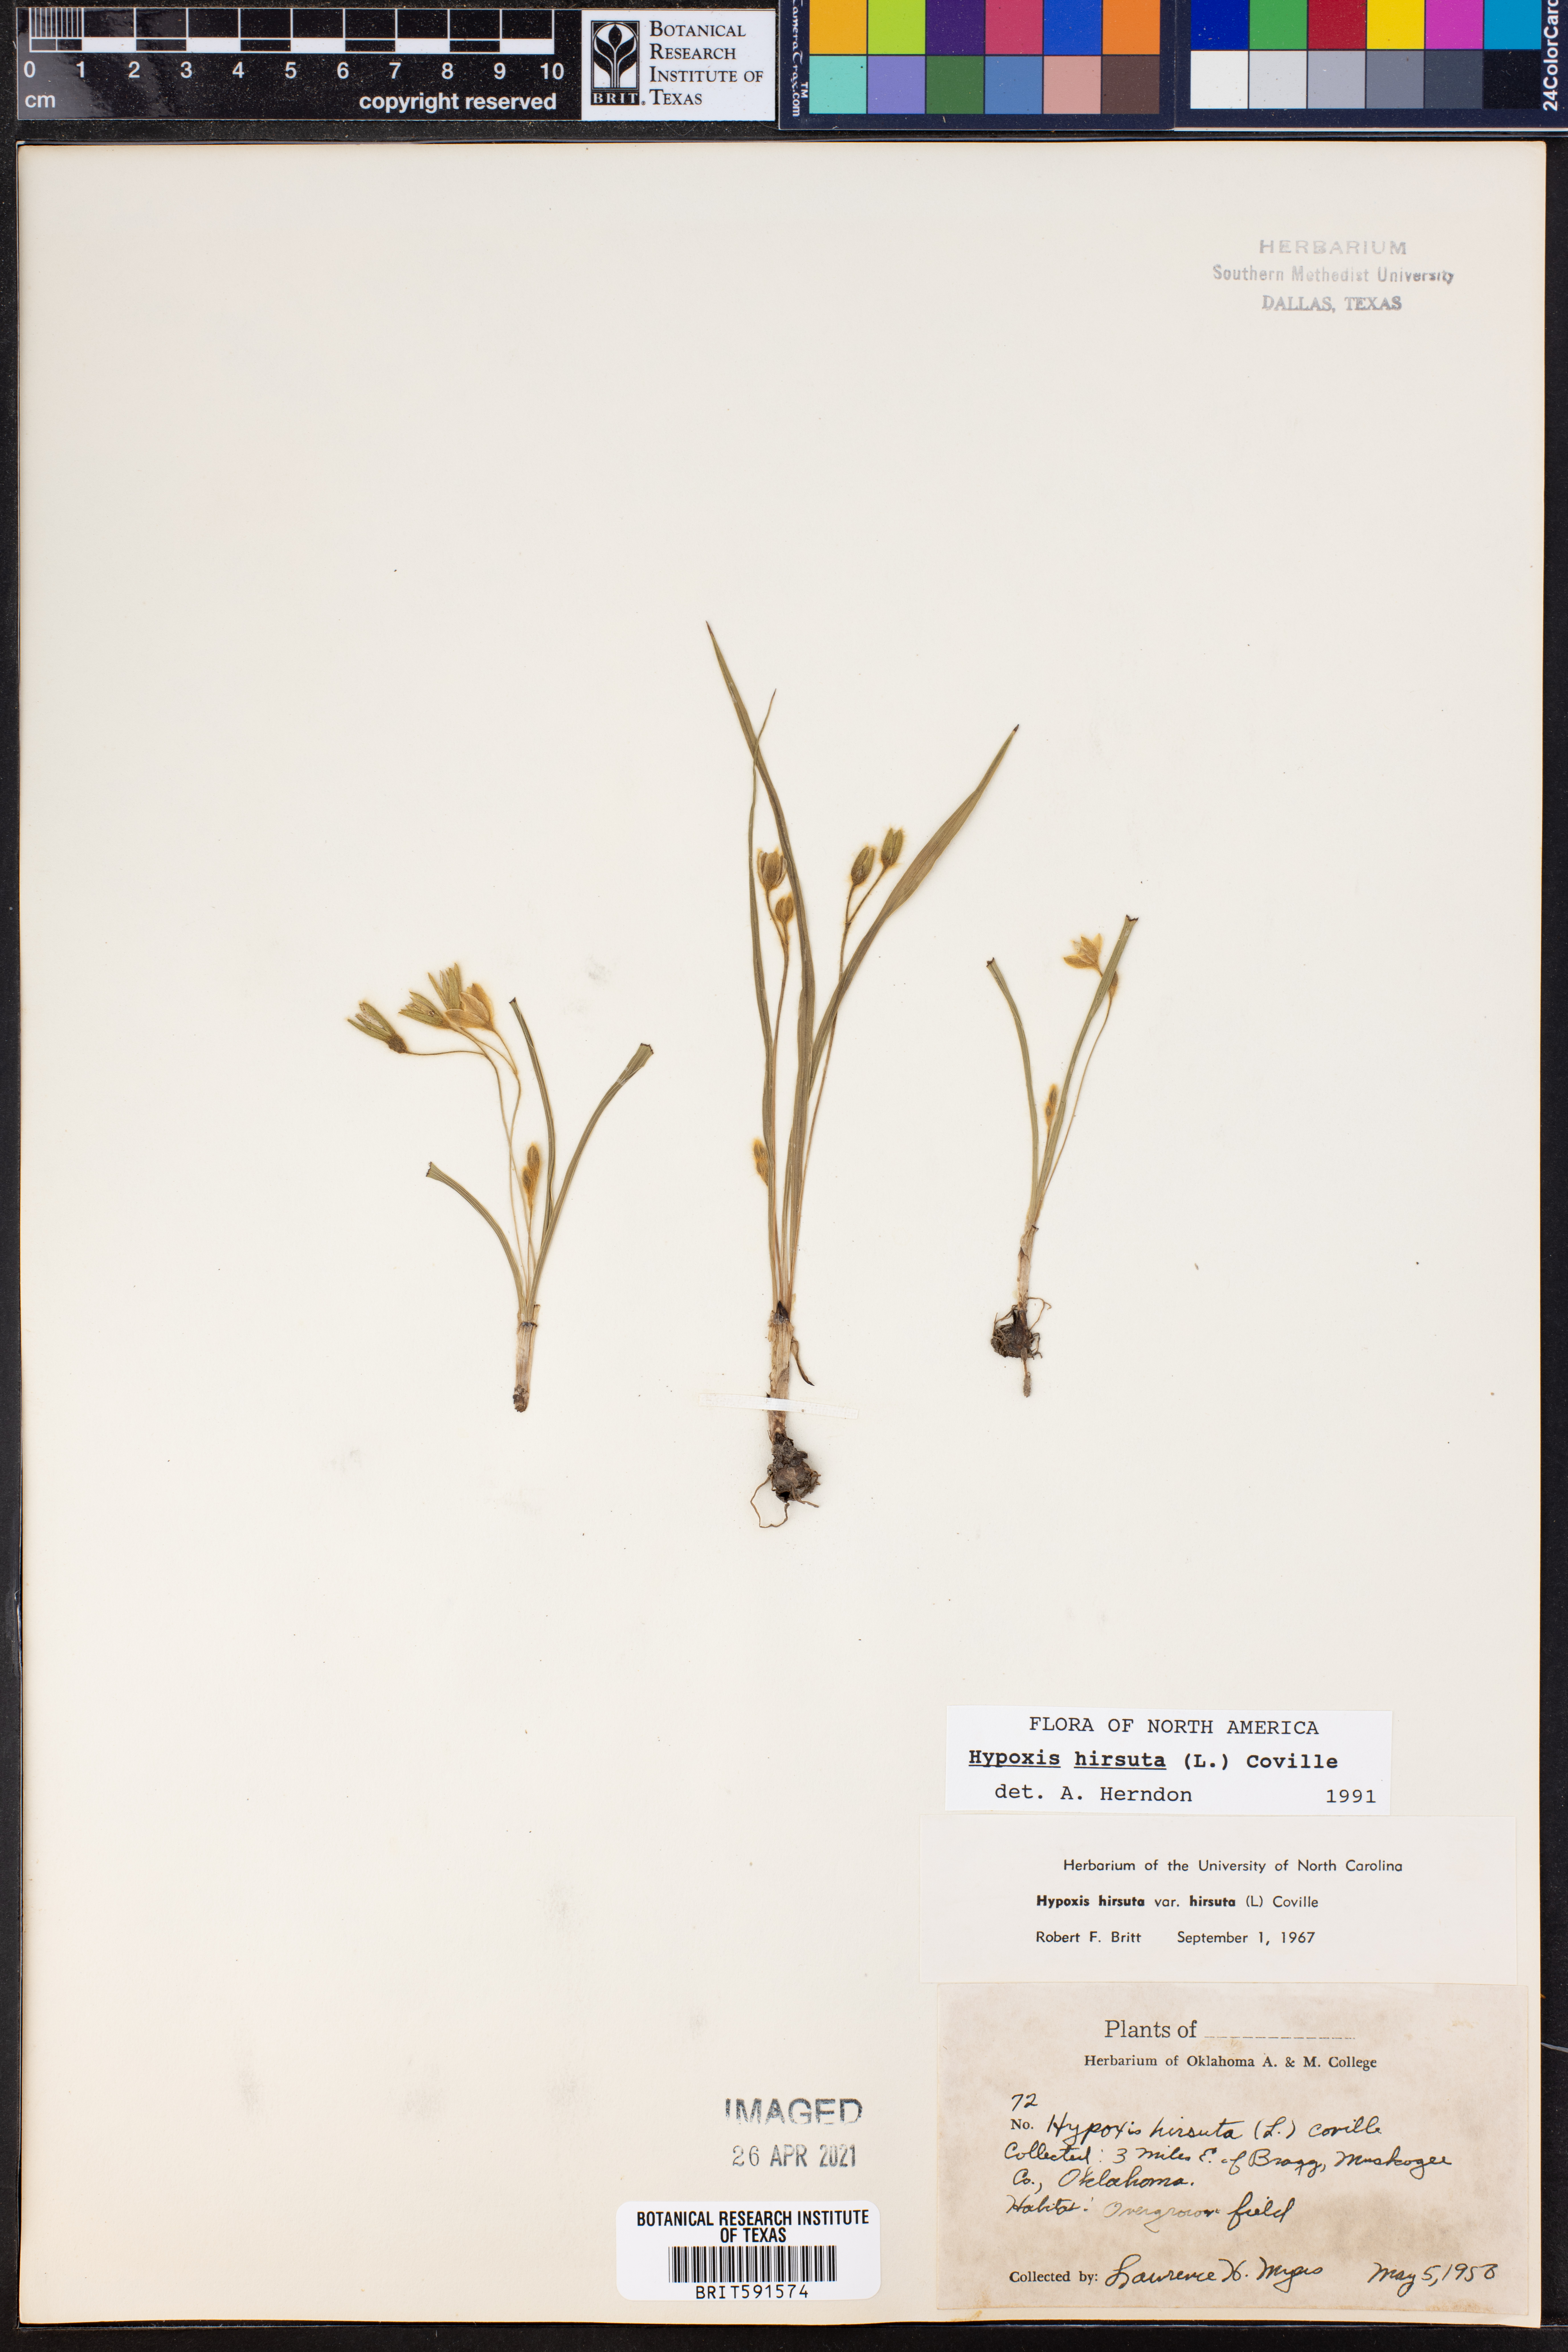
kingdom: Plantae
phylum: Tracheophyta
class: Liliopsida
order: Asparagales
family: Hypoxidaceae
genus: Hypoxis
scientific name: Hypoxis hirsuta
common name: Common goldstar
